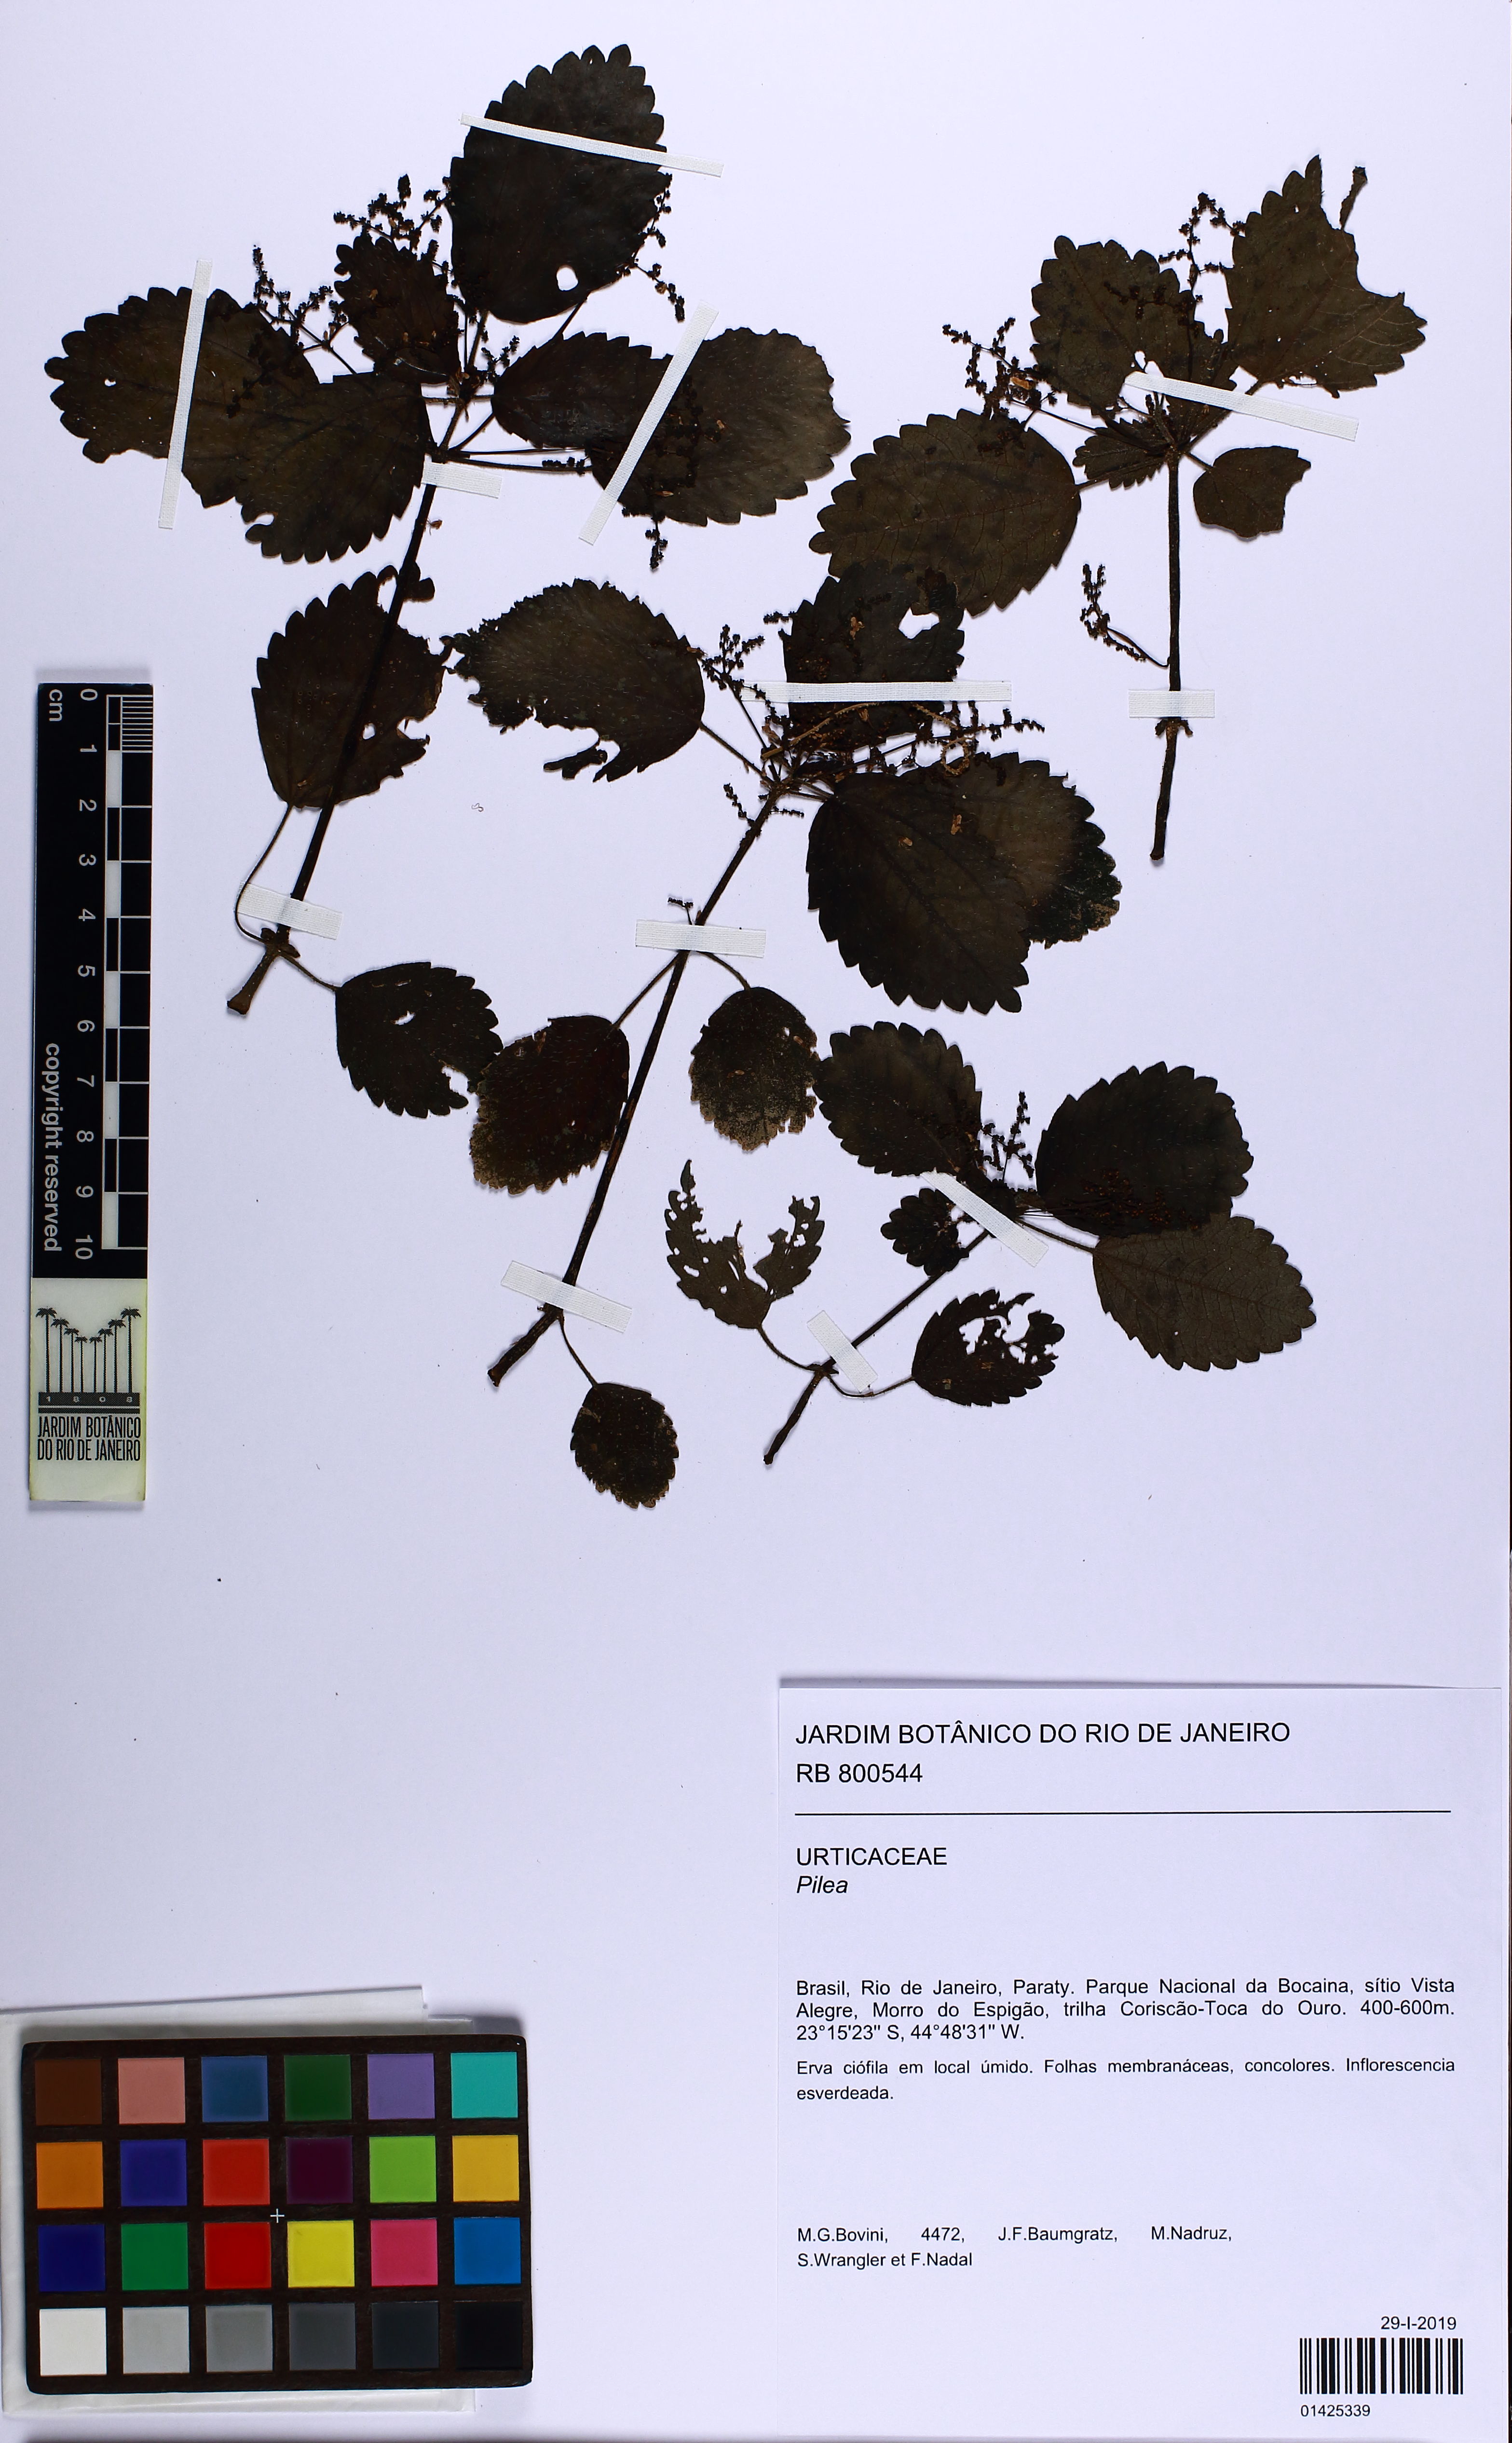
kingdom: Plantae
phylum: Tracheophyta
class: Magnoliopsida
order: Rosales
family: Urticaceae
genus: Pilea
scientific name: Pilea pubescens
